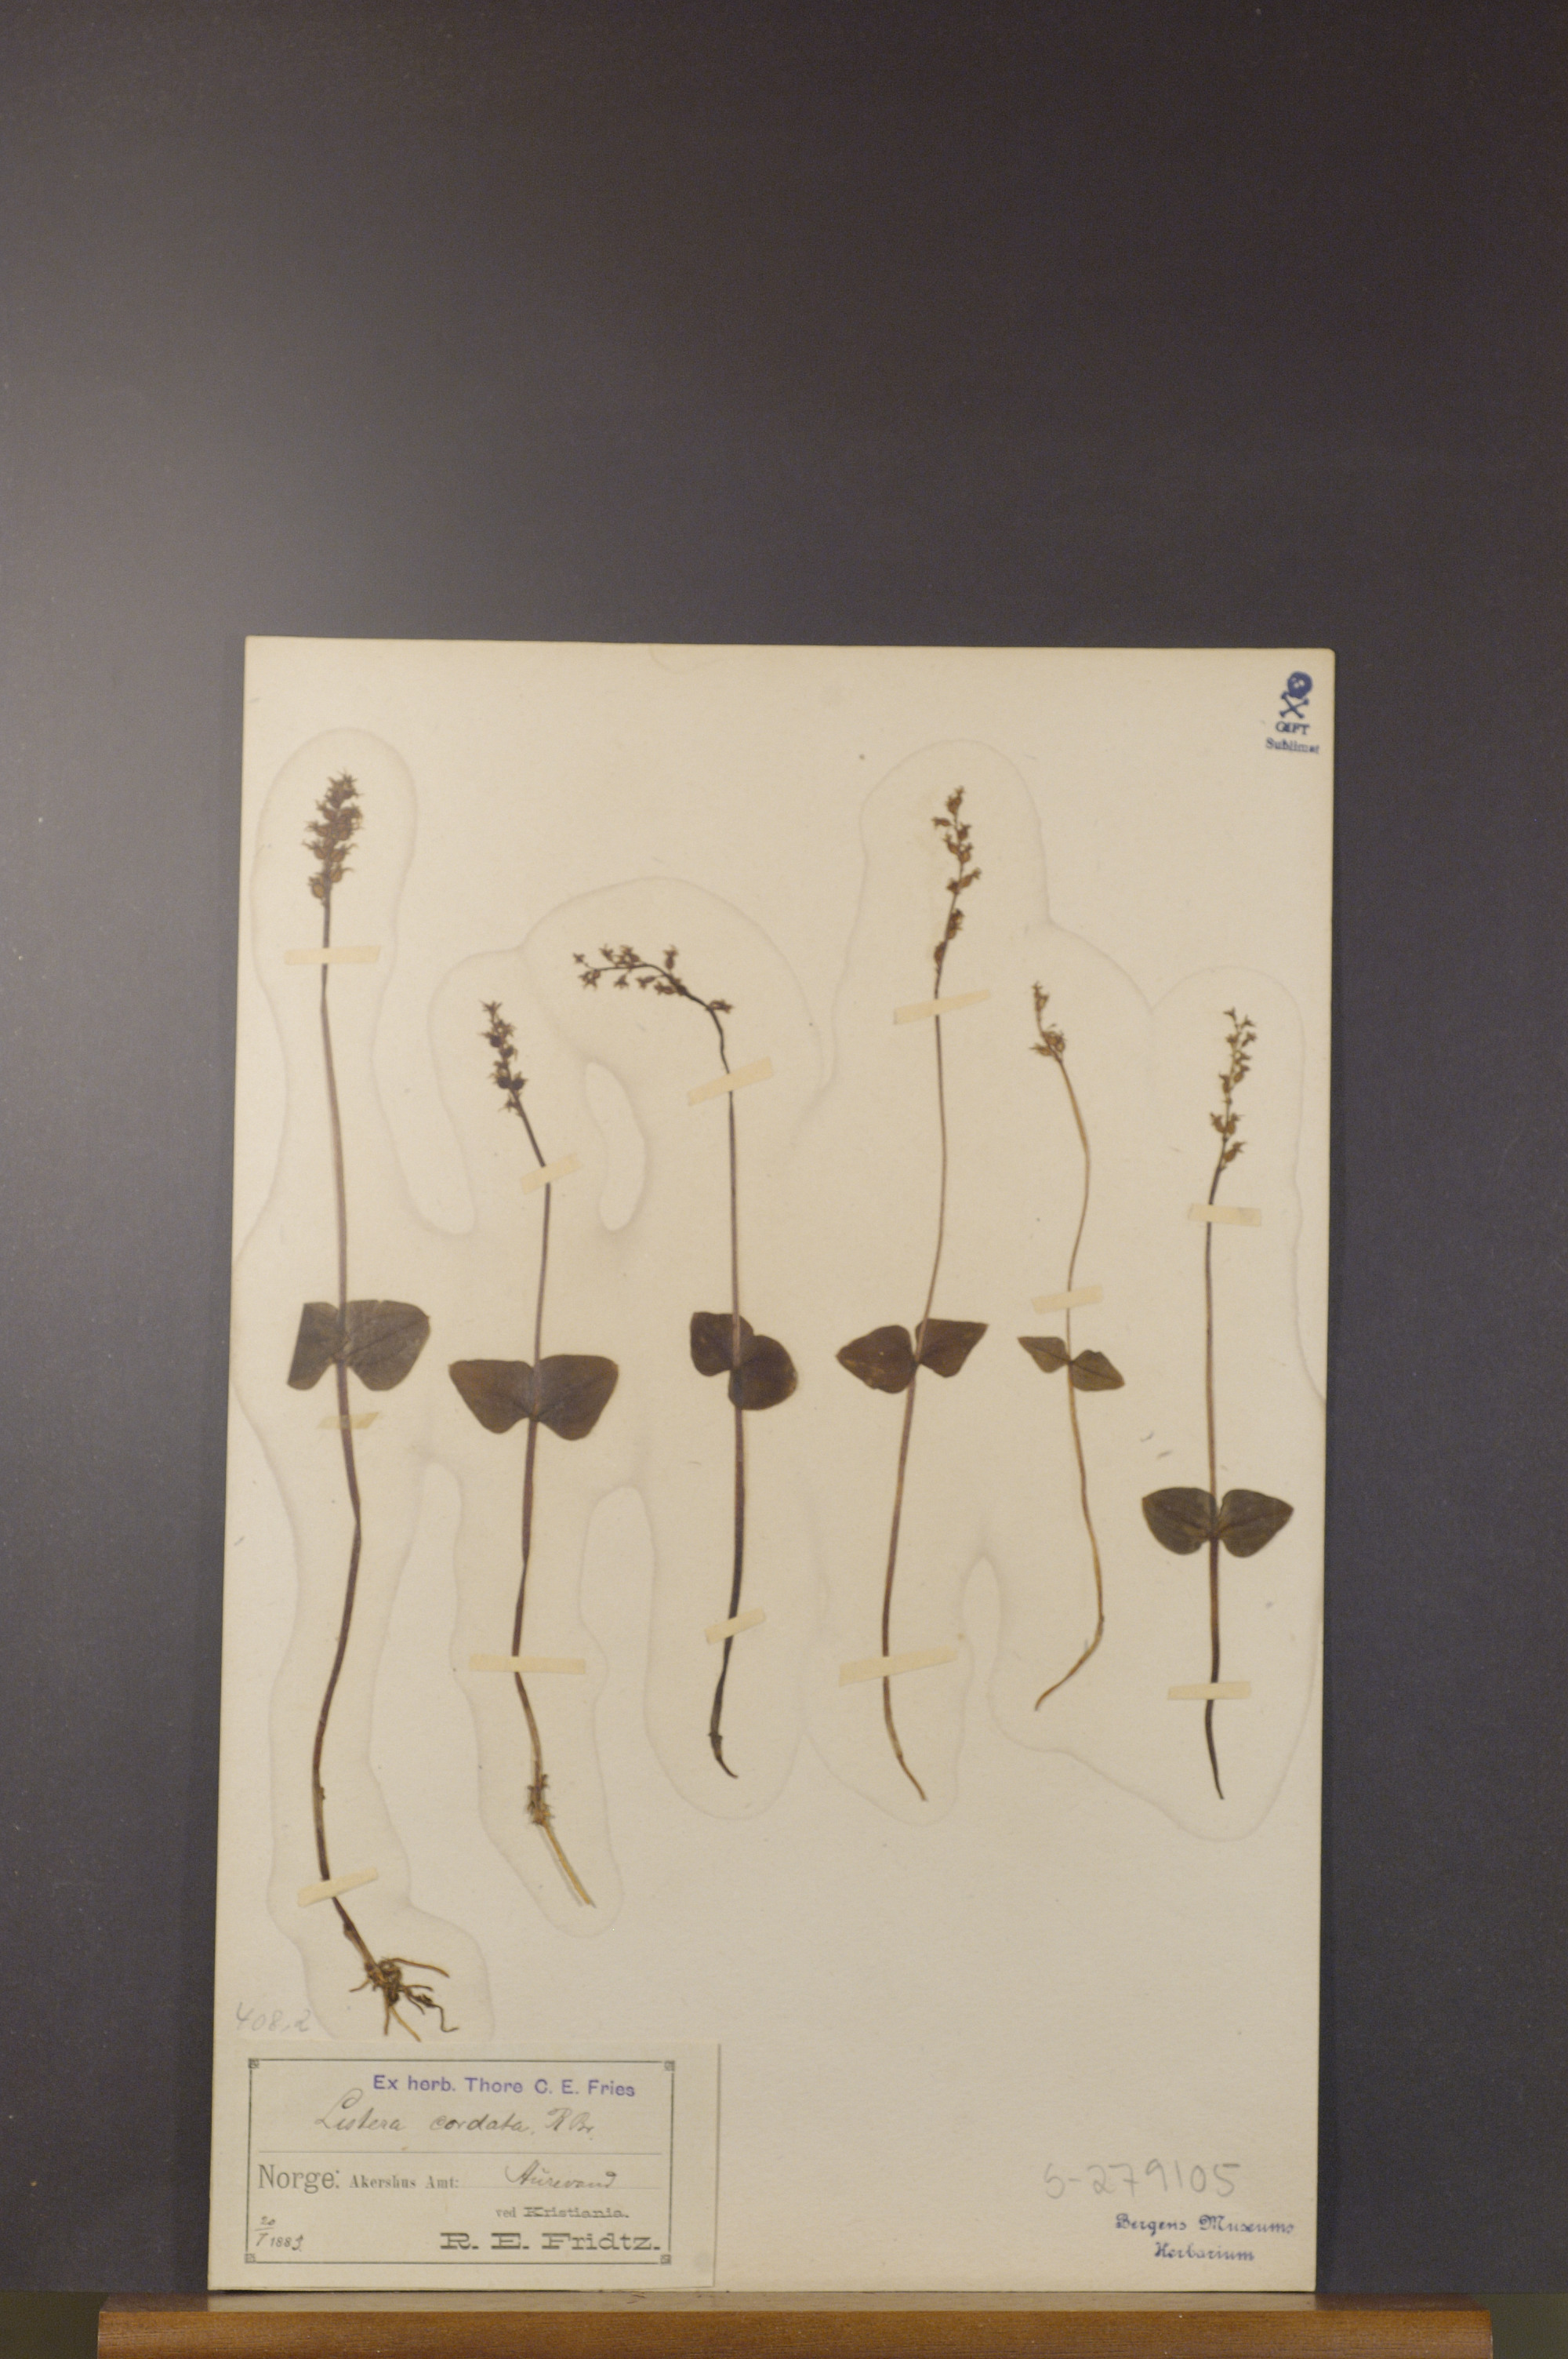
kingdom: Plantae
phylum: Tracheophyta
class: Liliopsida
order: Asparagales
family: Orchidaceae
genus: Neottia
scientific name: Neottia cordata
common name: Lesser twayblade
